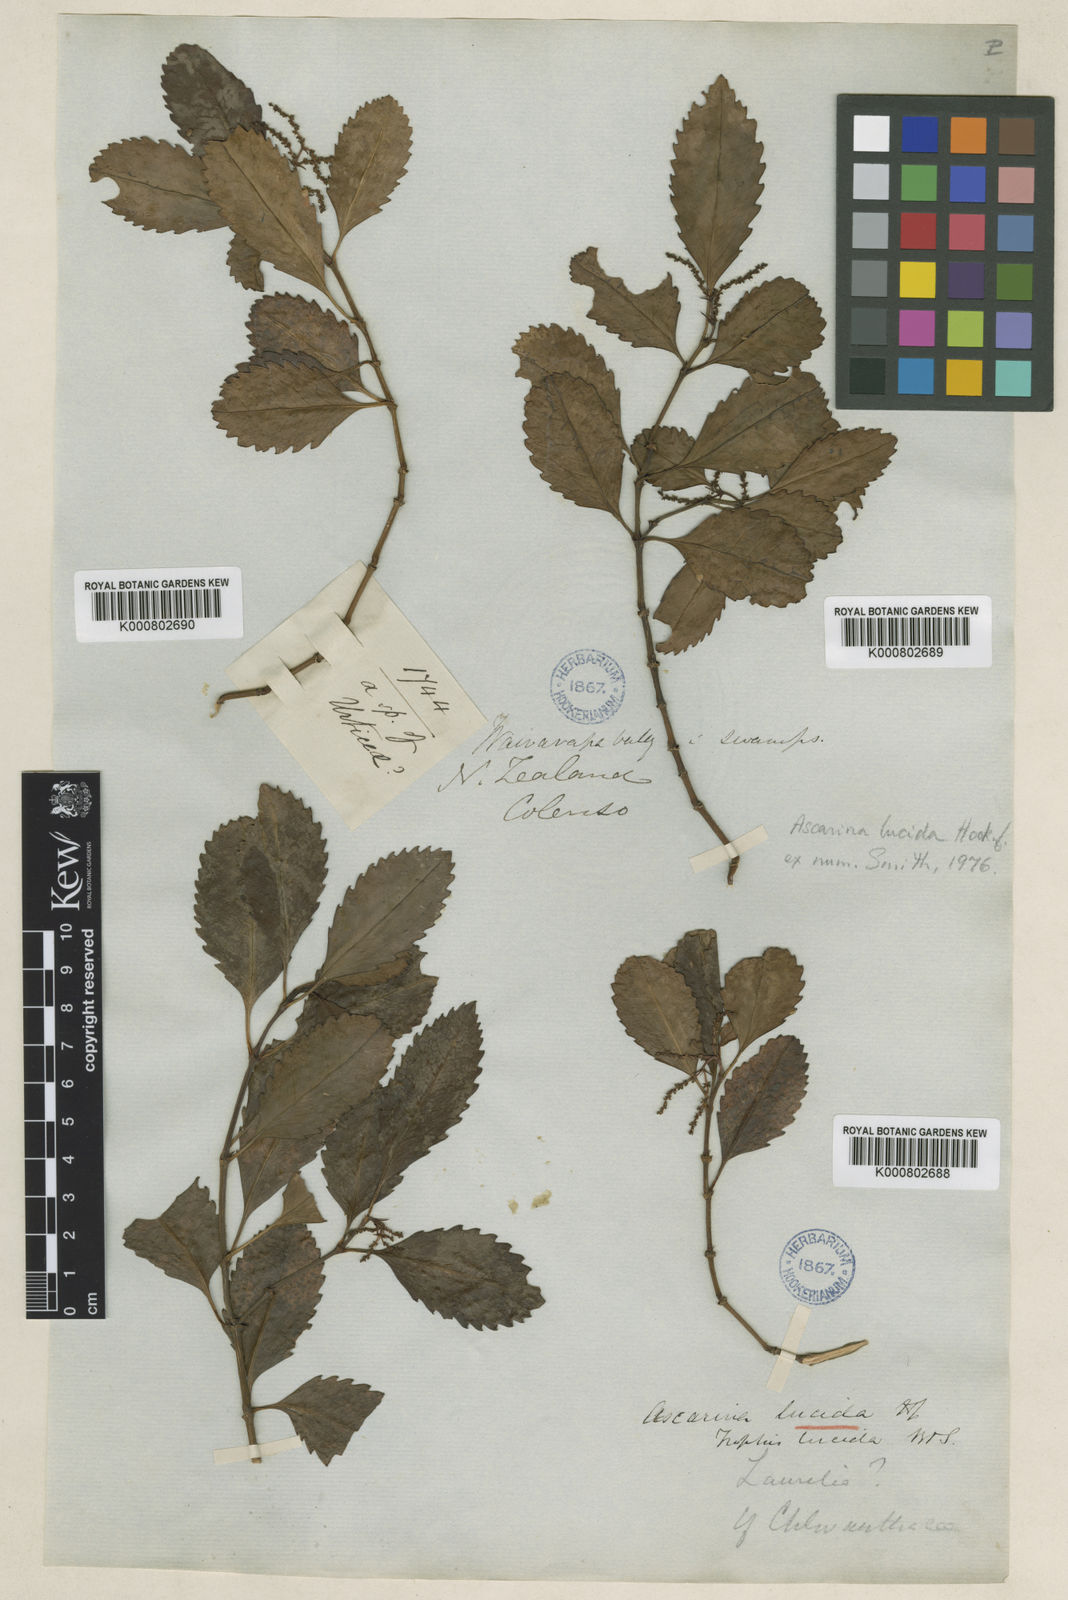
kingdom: Plantae
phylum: Tracheophyta
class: Magnoliopsida
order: Chloranthales
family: Chloranthaceae
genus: Ascarina
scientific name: Ascarina lucida
